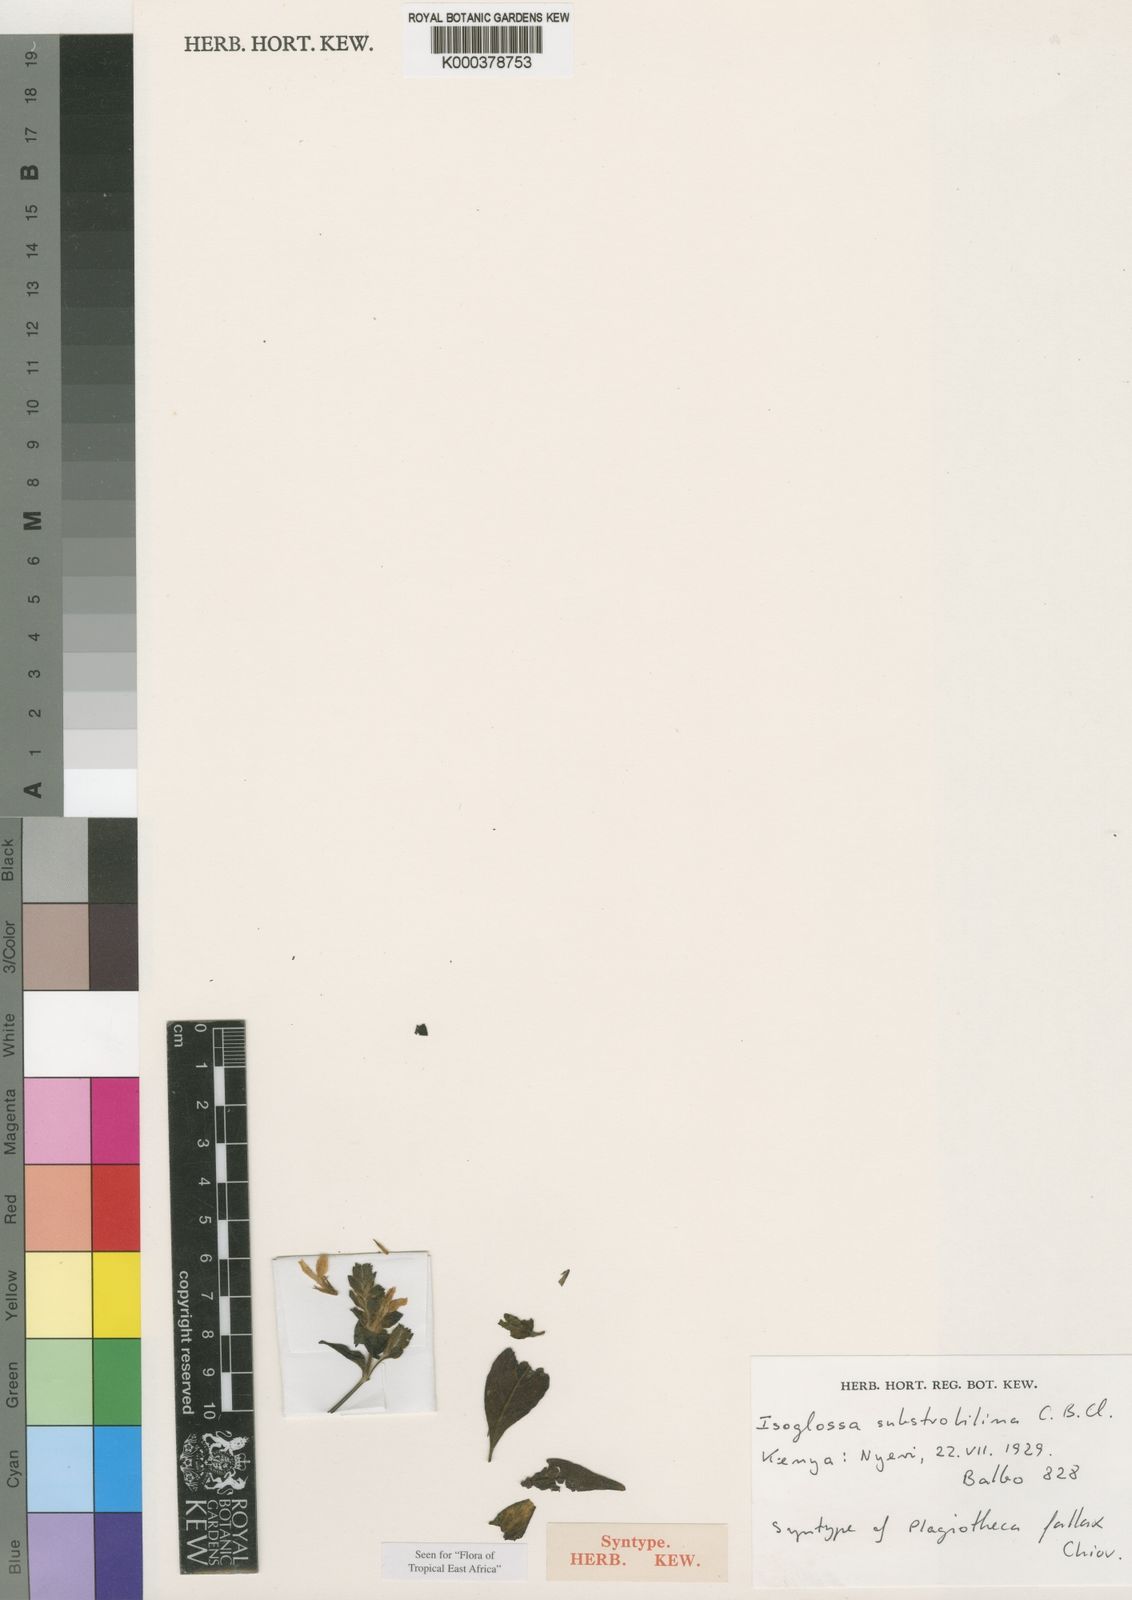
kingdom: Plantae
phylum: Tracheophyta
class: Magnoliopsida
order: Lamiales
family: Acanthaceae
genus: Isoglossa
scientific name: Isoglossa substrobilina
